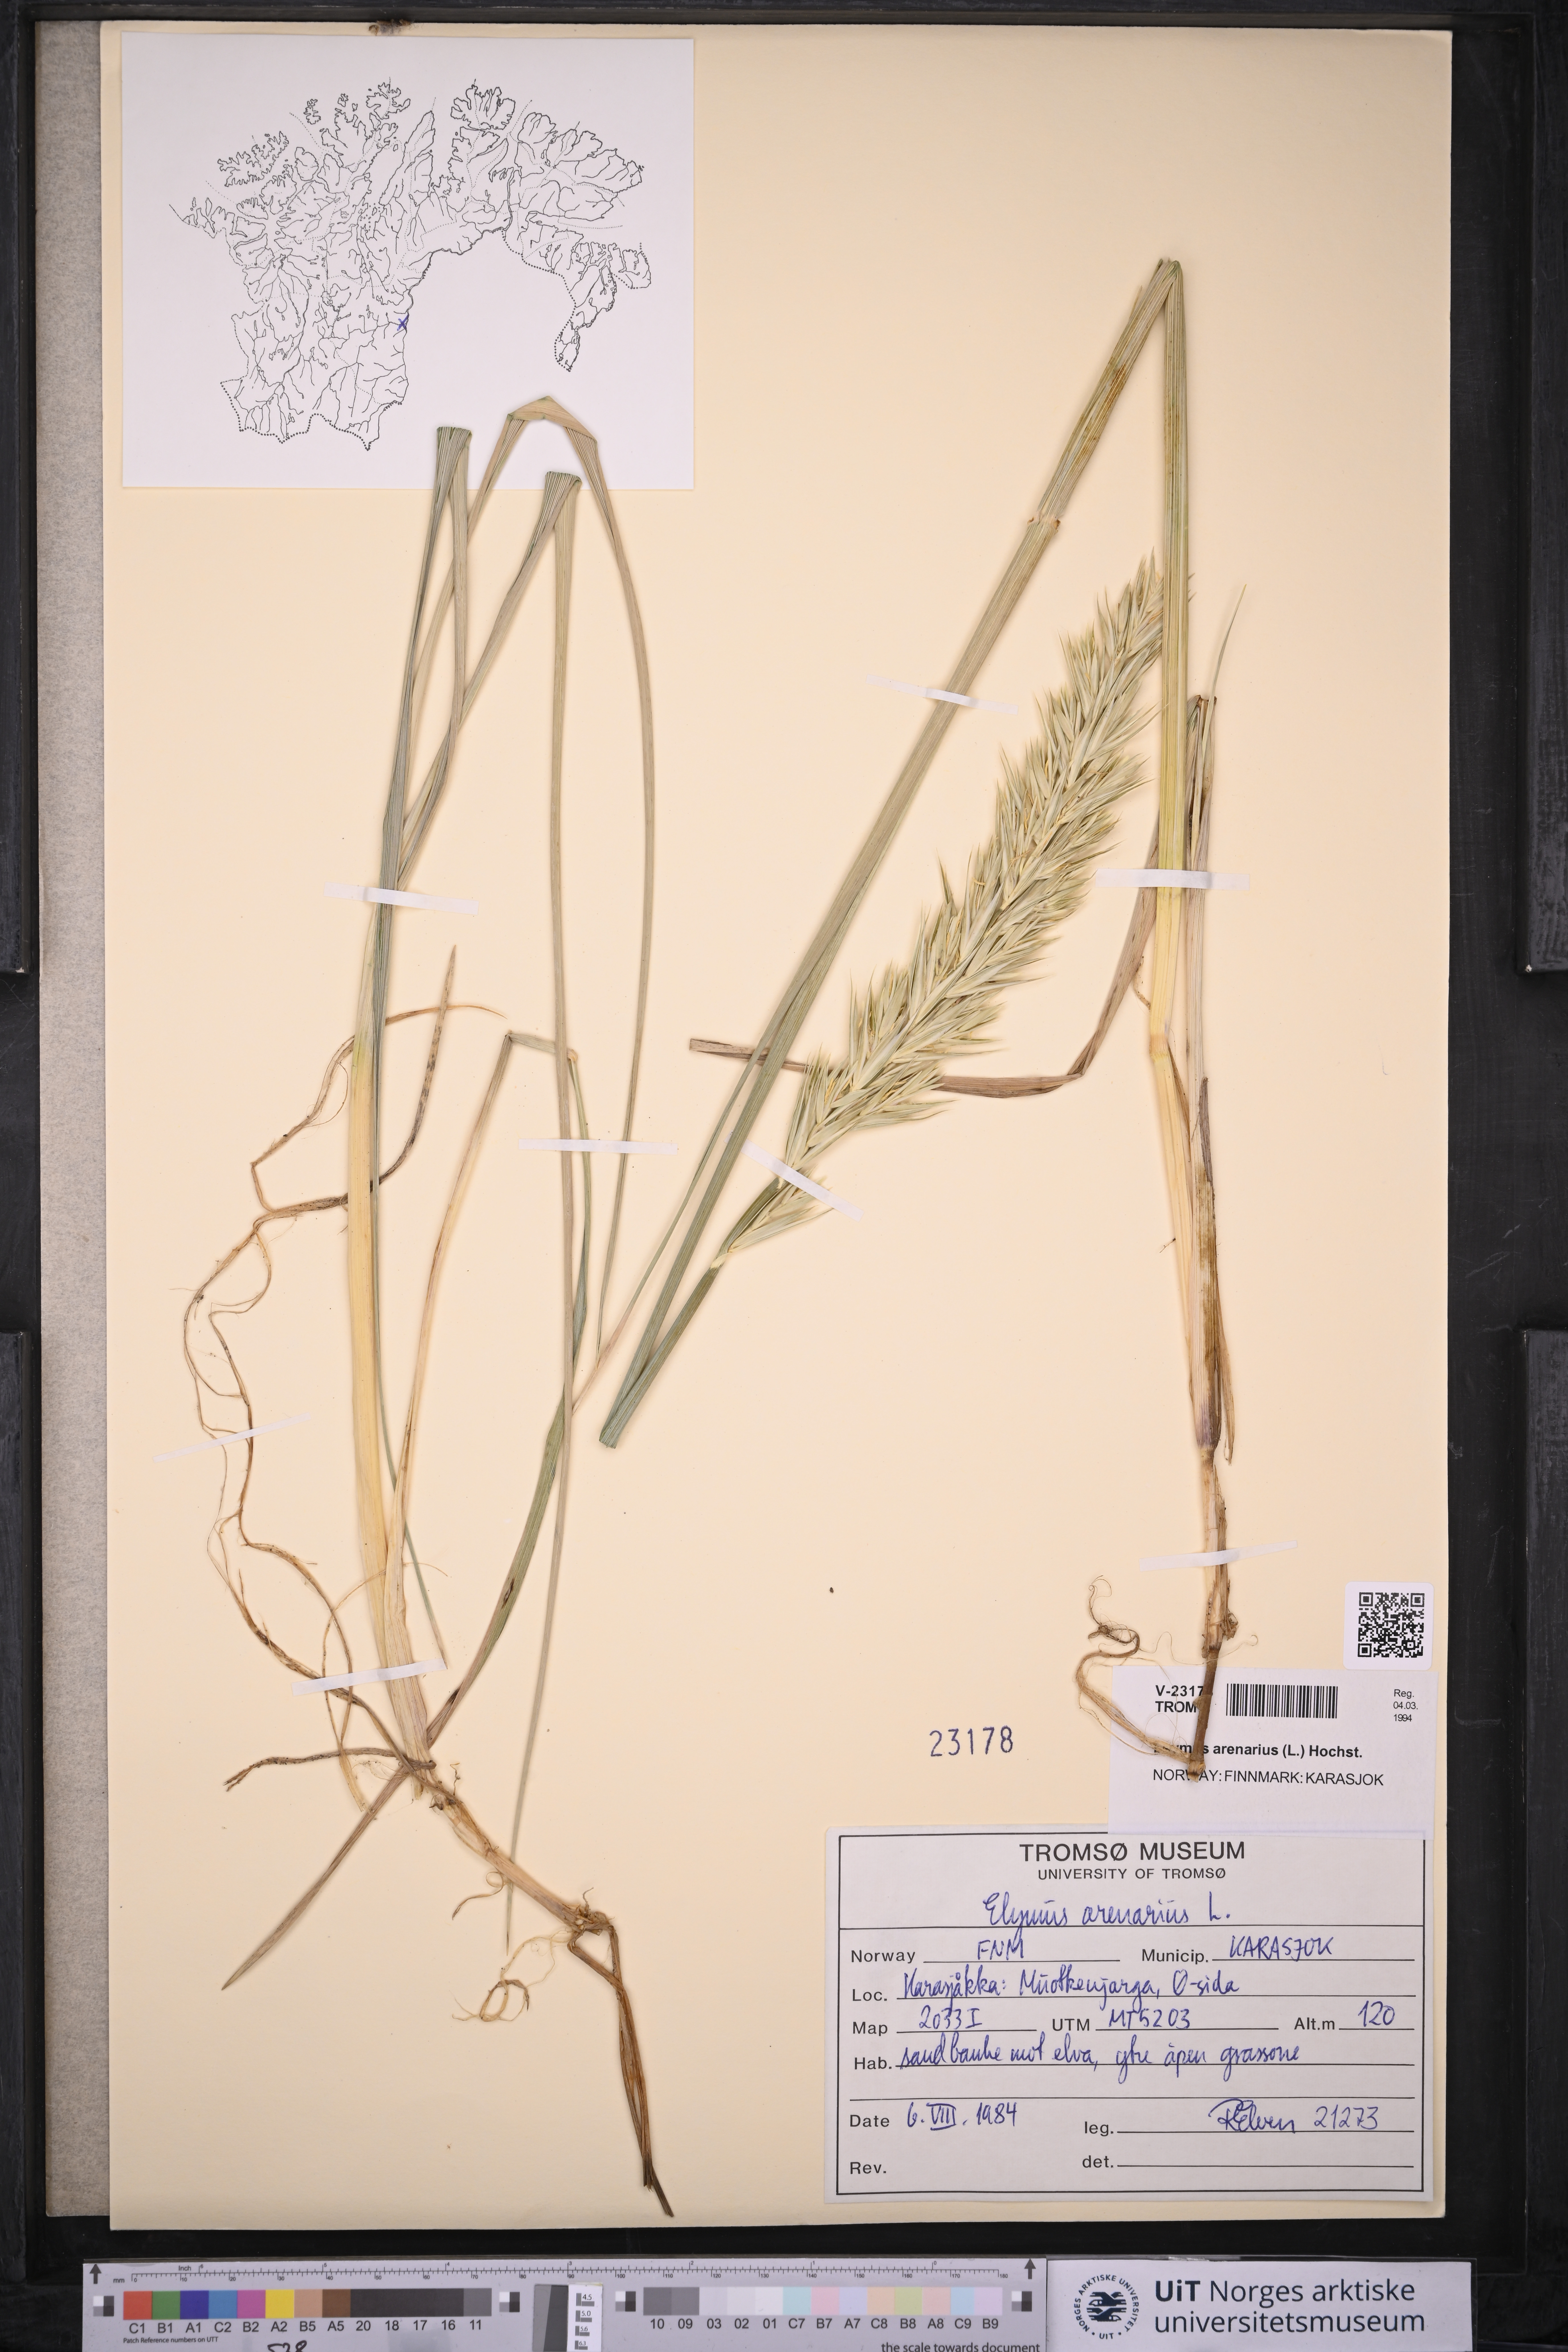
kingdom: Plantae
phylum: Tracheophyta
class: Liliopsida
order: Poales
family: Poaceae
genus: Leymus
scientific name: Leymus arenarius
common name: Lyme-grass
